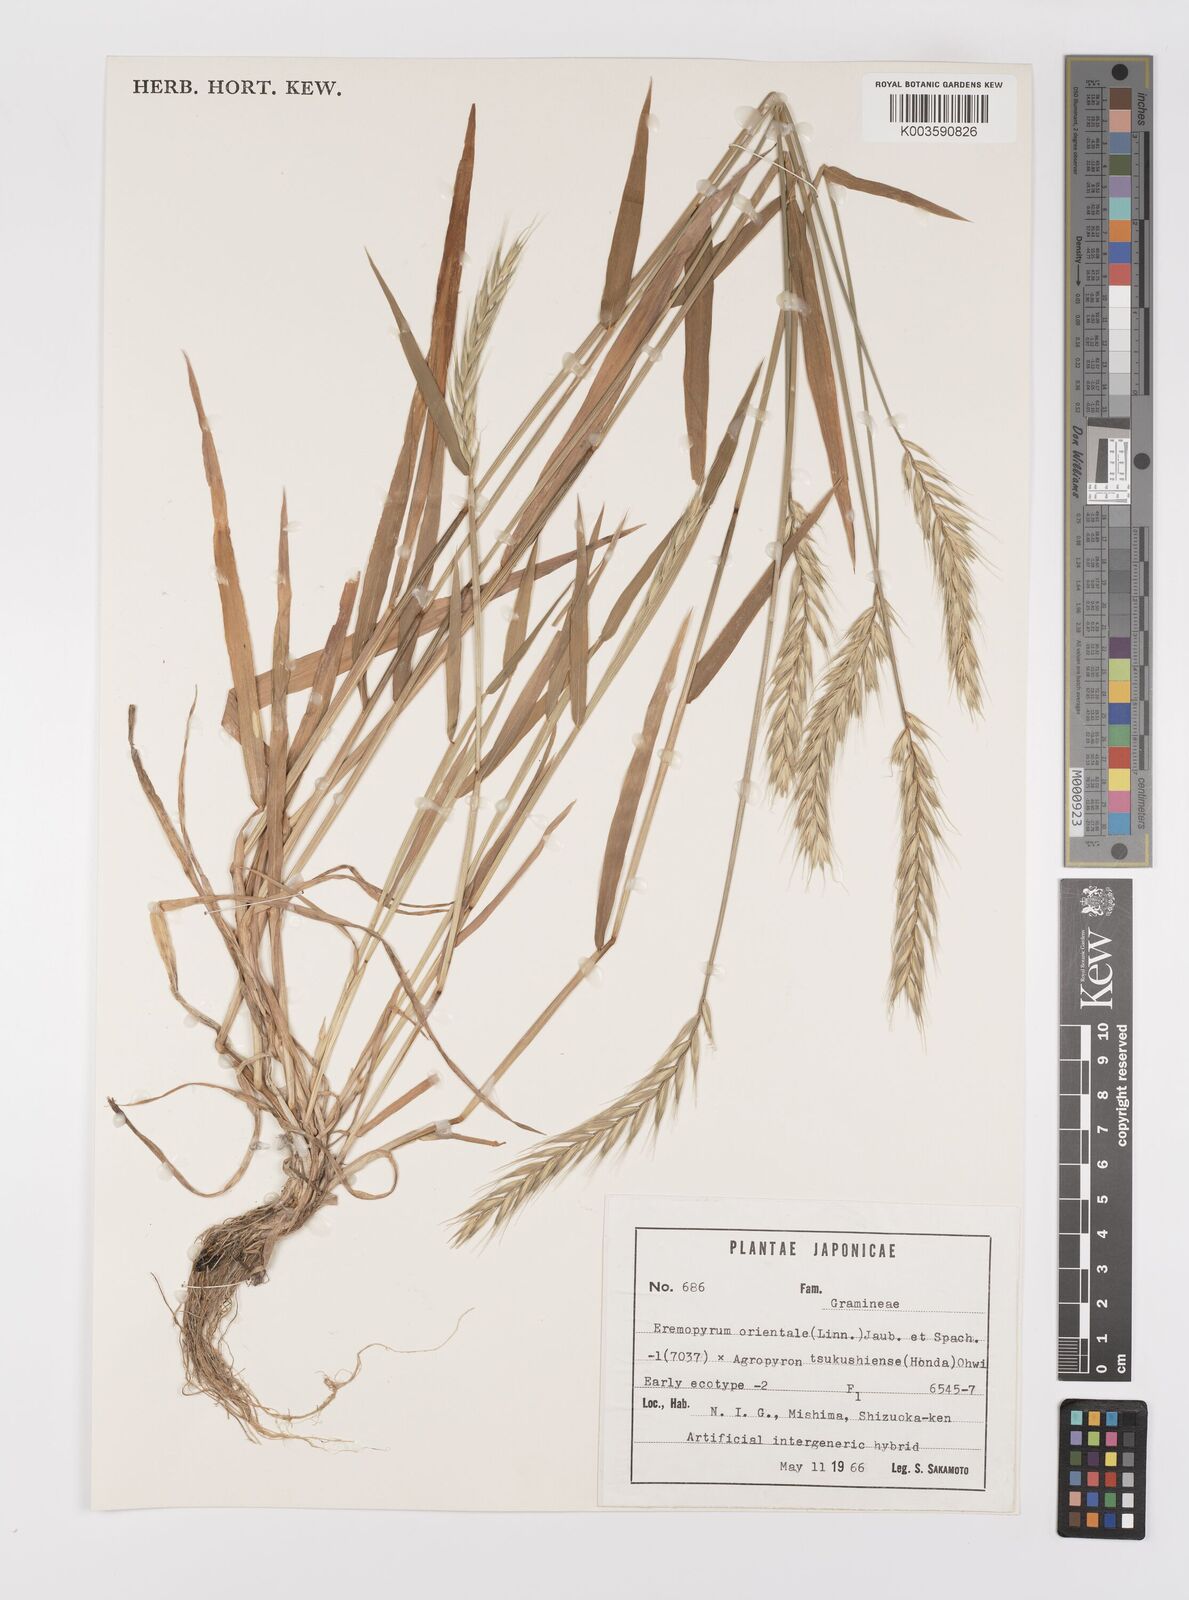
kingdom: Plantae
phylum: Tracheophyta
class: Liliopsida
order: Poales
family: Poaceae
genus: Elyhordeum
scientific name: Elyhordeum
